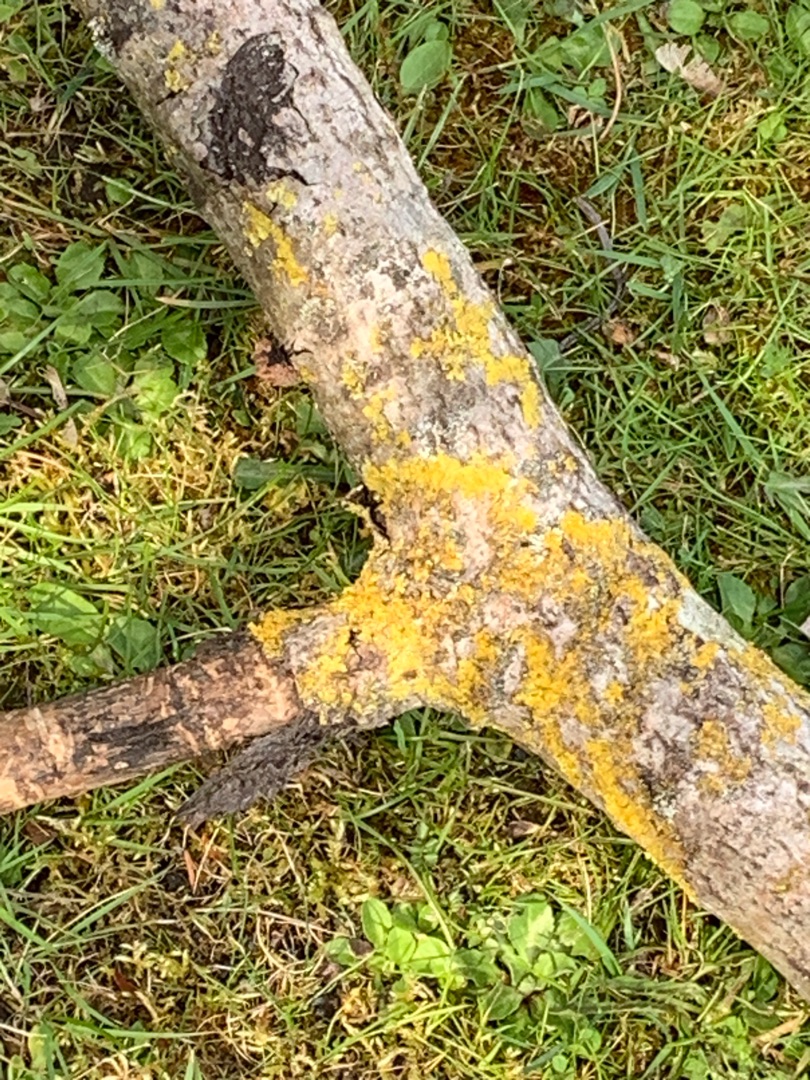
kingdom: Fungi
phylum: Ascomycota
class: Lecanoromycetes
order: Teloschistales
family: Teloschistaceae
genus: Xanthoria
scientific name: Xanthoria parietina
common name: Almindelig væggelav
